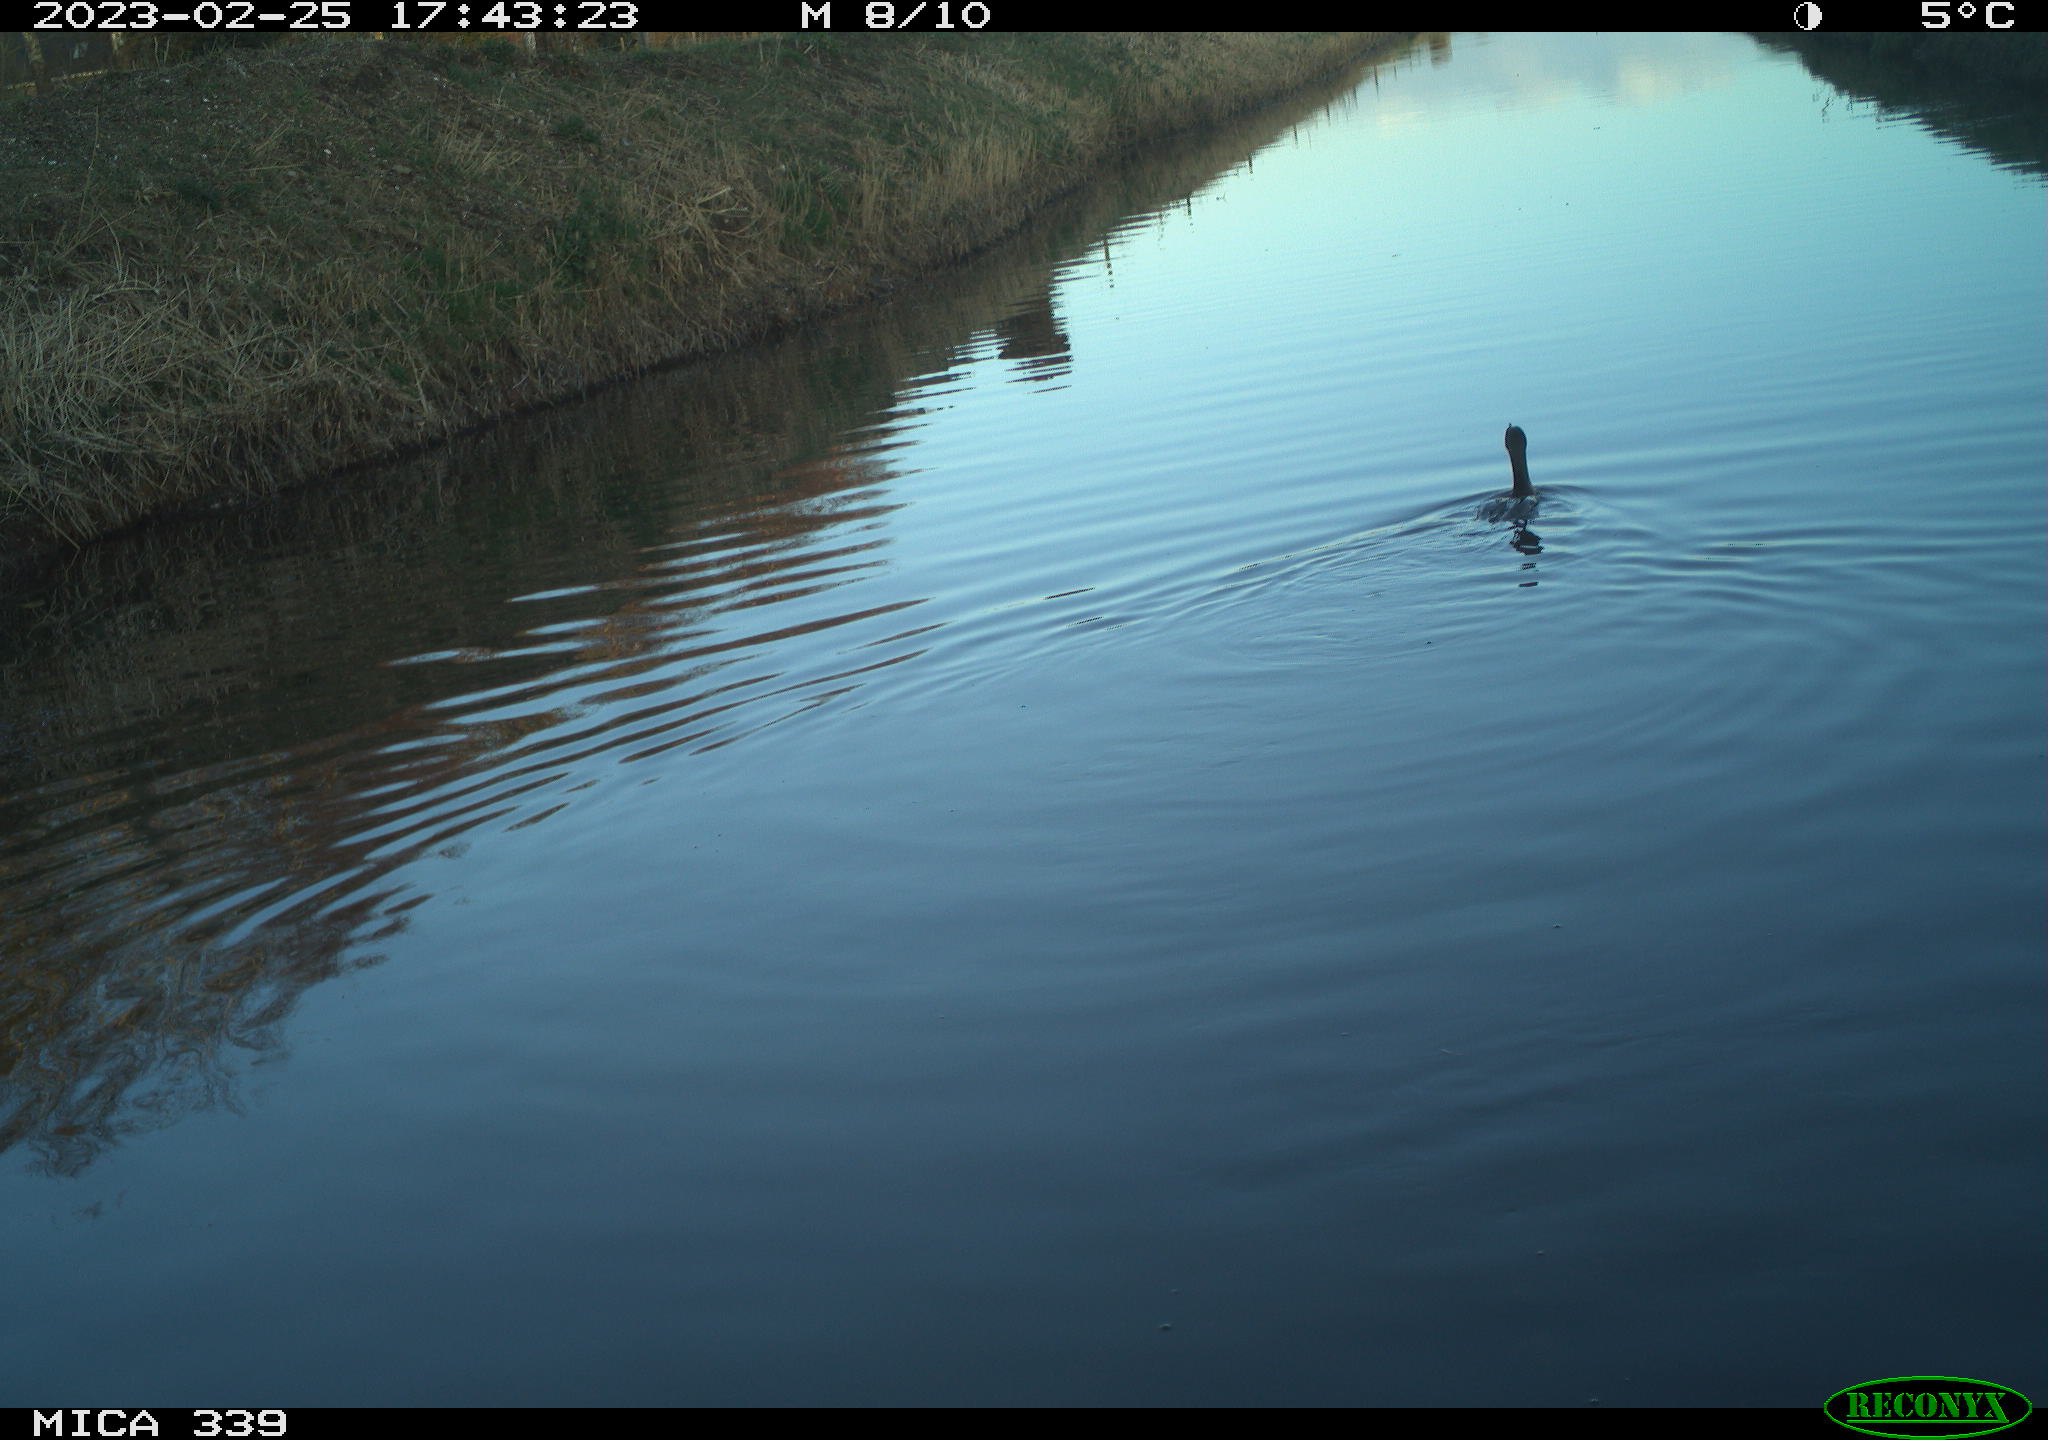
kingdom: Animalia
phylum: Chordata
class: Aves
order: Suliformes
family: Phalacrocoracidae
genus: Phalacrocorax
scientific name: Phalacrocorax carbo
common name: Great cormorant
